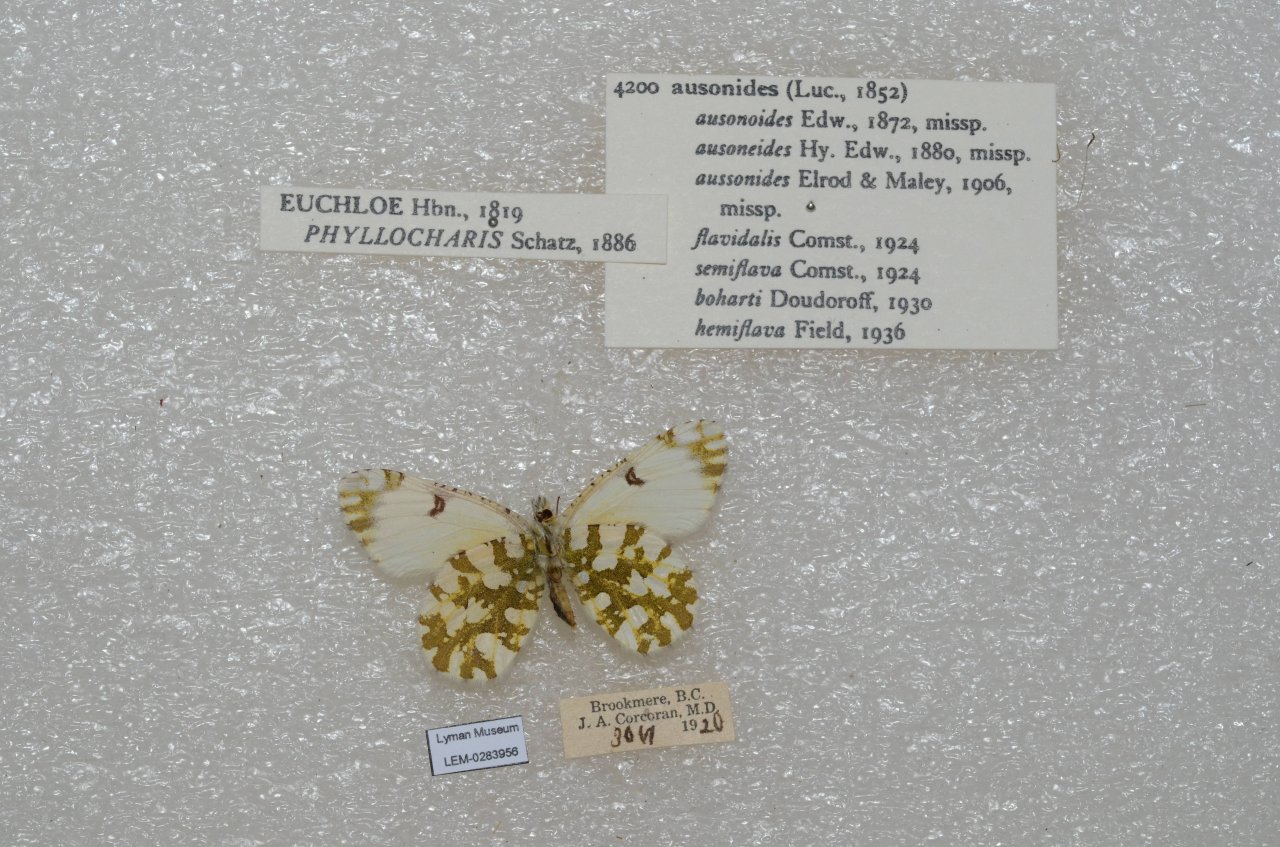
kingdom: Animalia
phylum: Arthropoda
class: Insecta
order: Lepidoptera
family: Pieridae
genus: Euchloe
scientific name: Euchloe ausonides
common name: Large Marble
